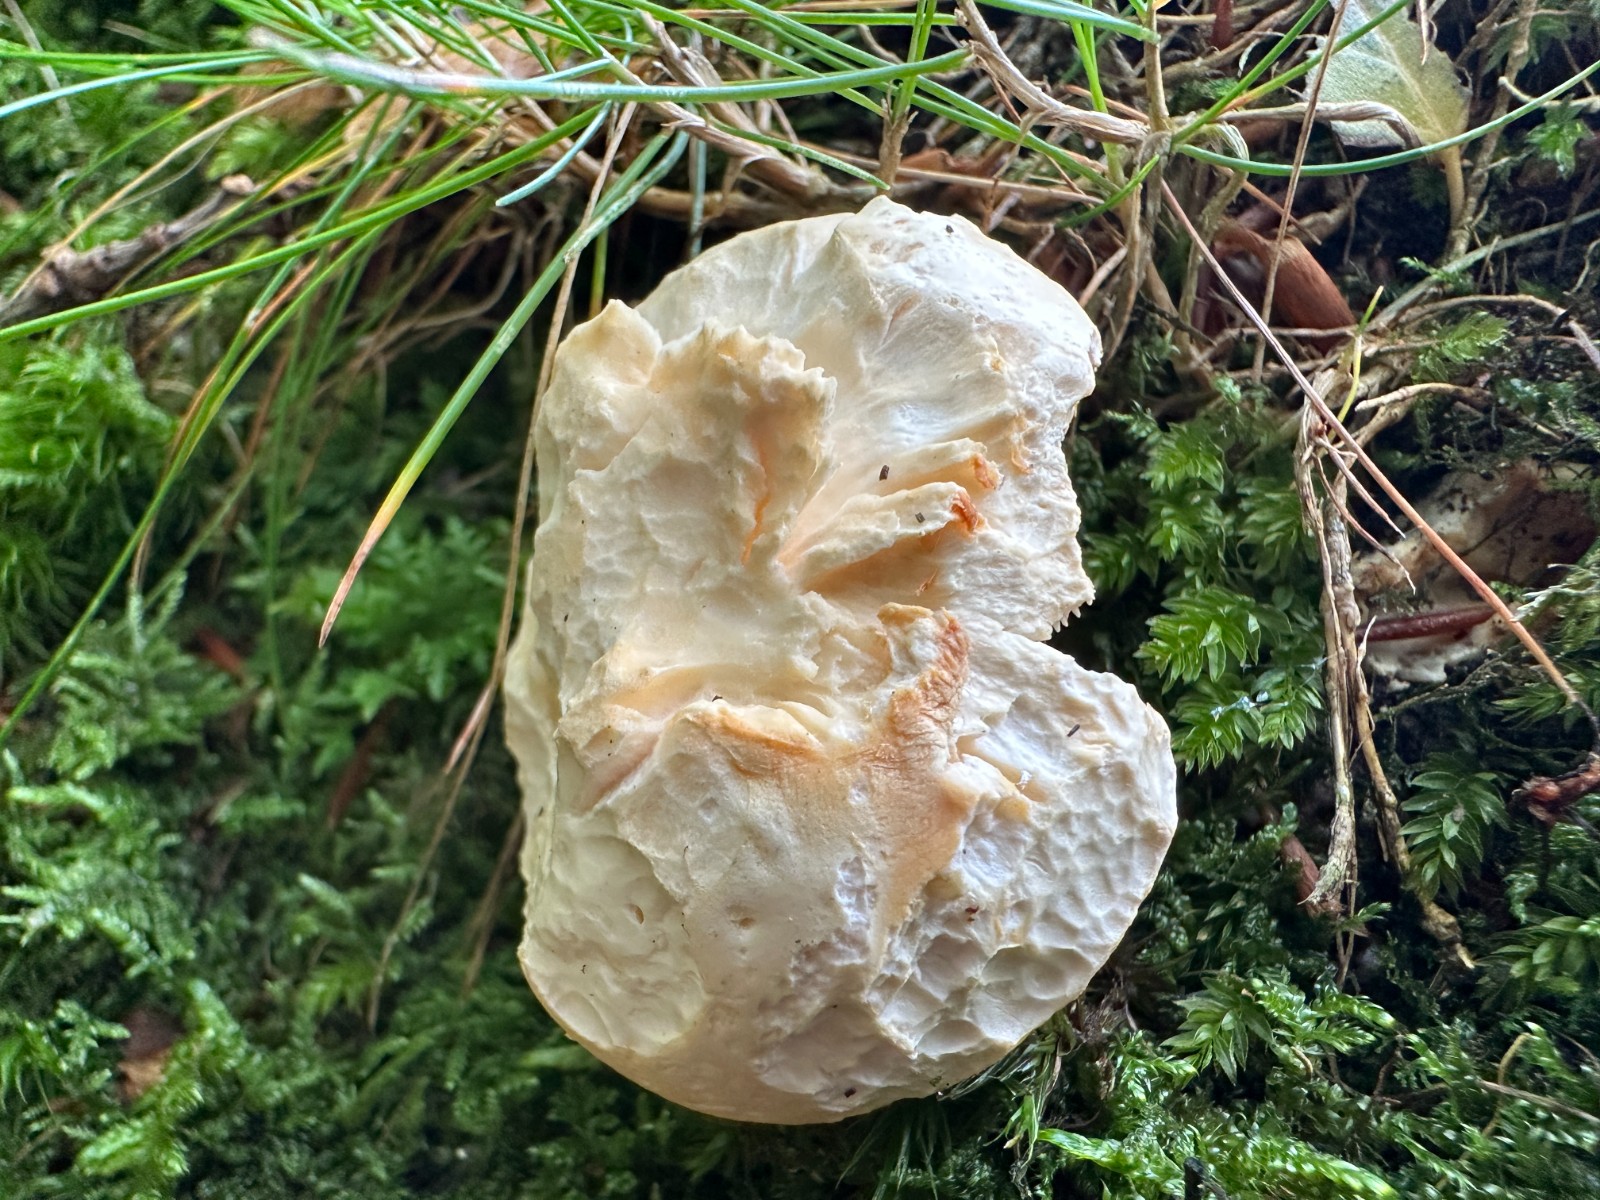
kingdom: Fungi
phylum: Basidiomycota
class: Agaricomycetes
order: Cantharellales
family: Hydnaceae
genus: Hydnum
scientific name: Hydnum repandum
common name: almindelig pigsvamp
